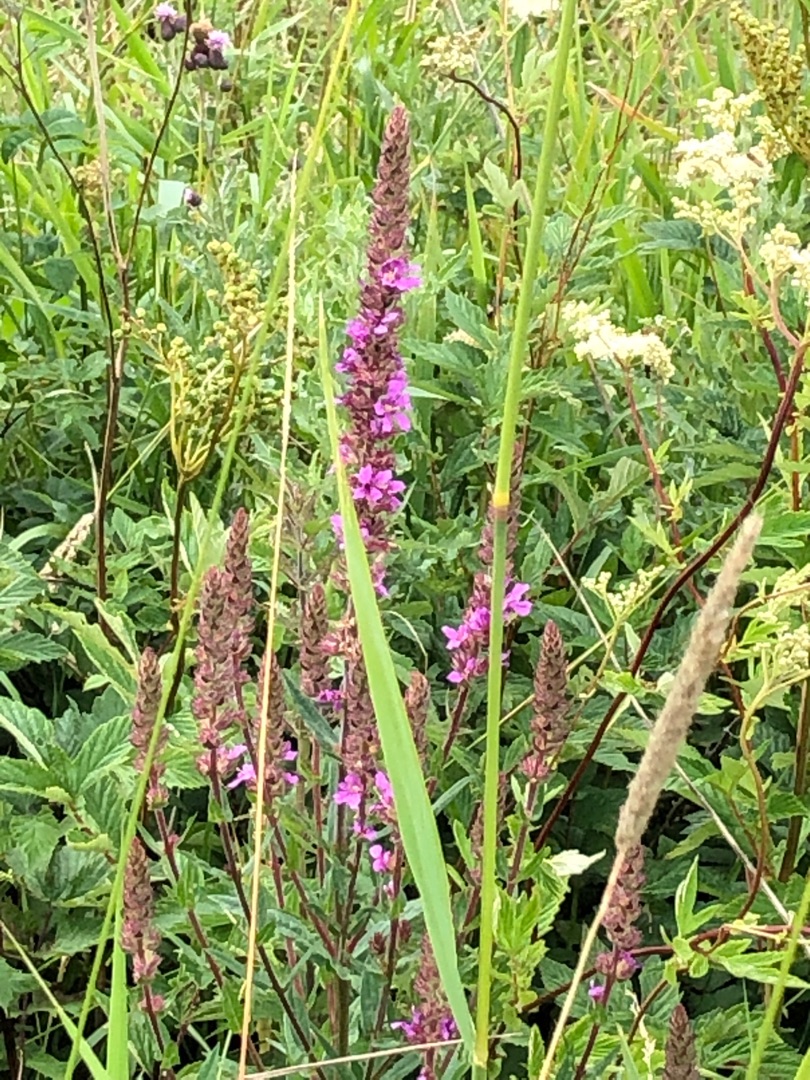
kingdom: Plantae
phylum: Tracheophyta
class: Magnoliopsida
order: Myrtales
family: Lythraceae
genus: Lythrum
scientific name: Lythrum salicaria
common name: Kattehale
